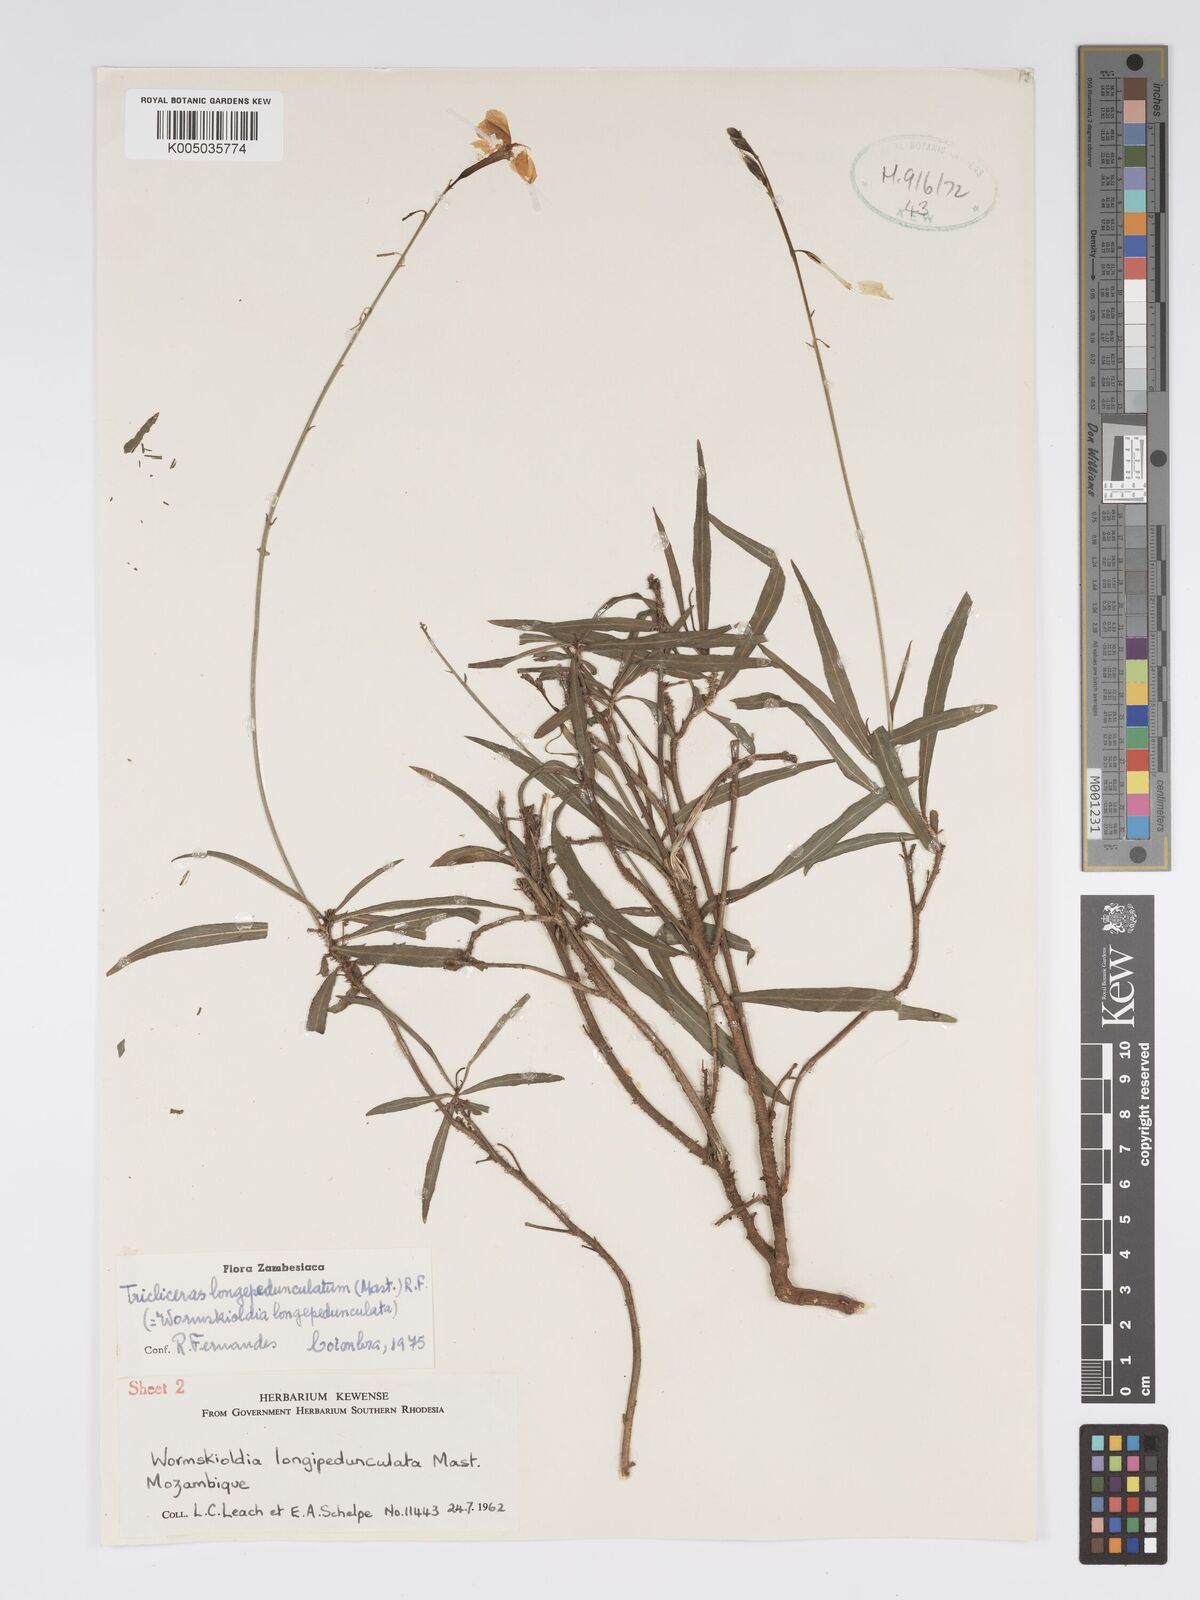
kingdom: Plantae
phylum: Tracheophyta
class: Magnoliopsida
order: Malpighiales
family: Turneraceae
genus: Tricliceras
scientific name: Tricliceras longepedunculatum
